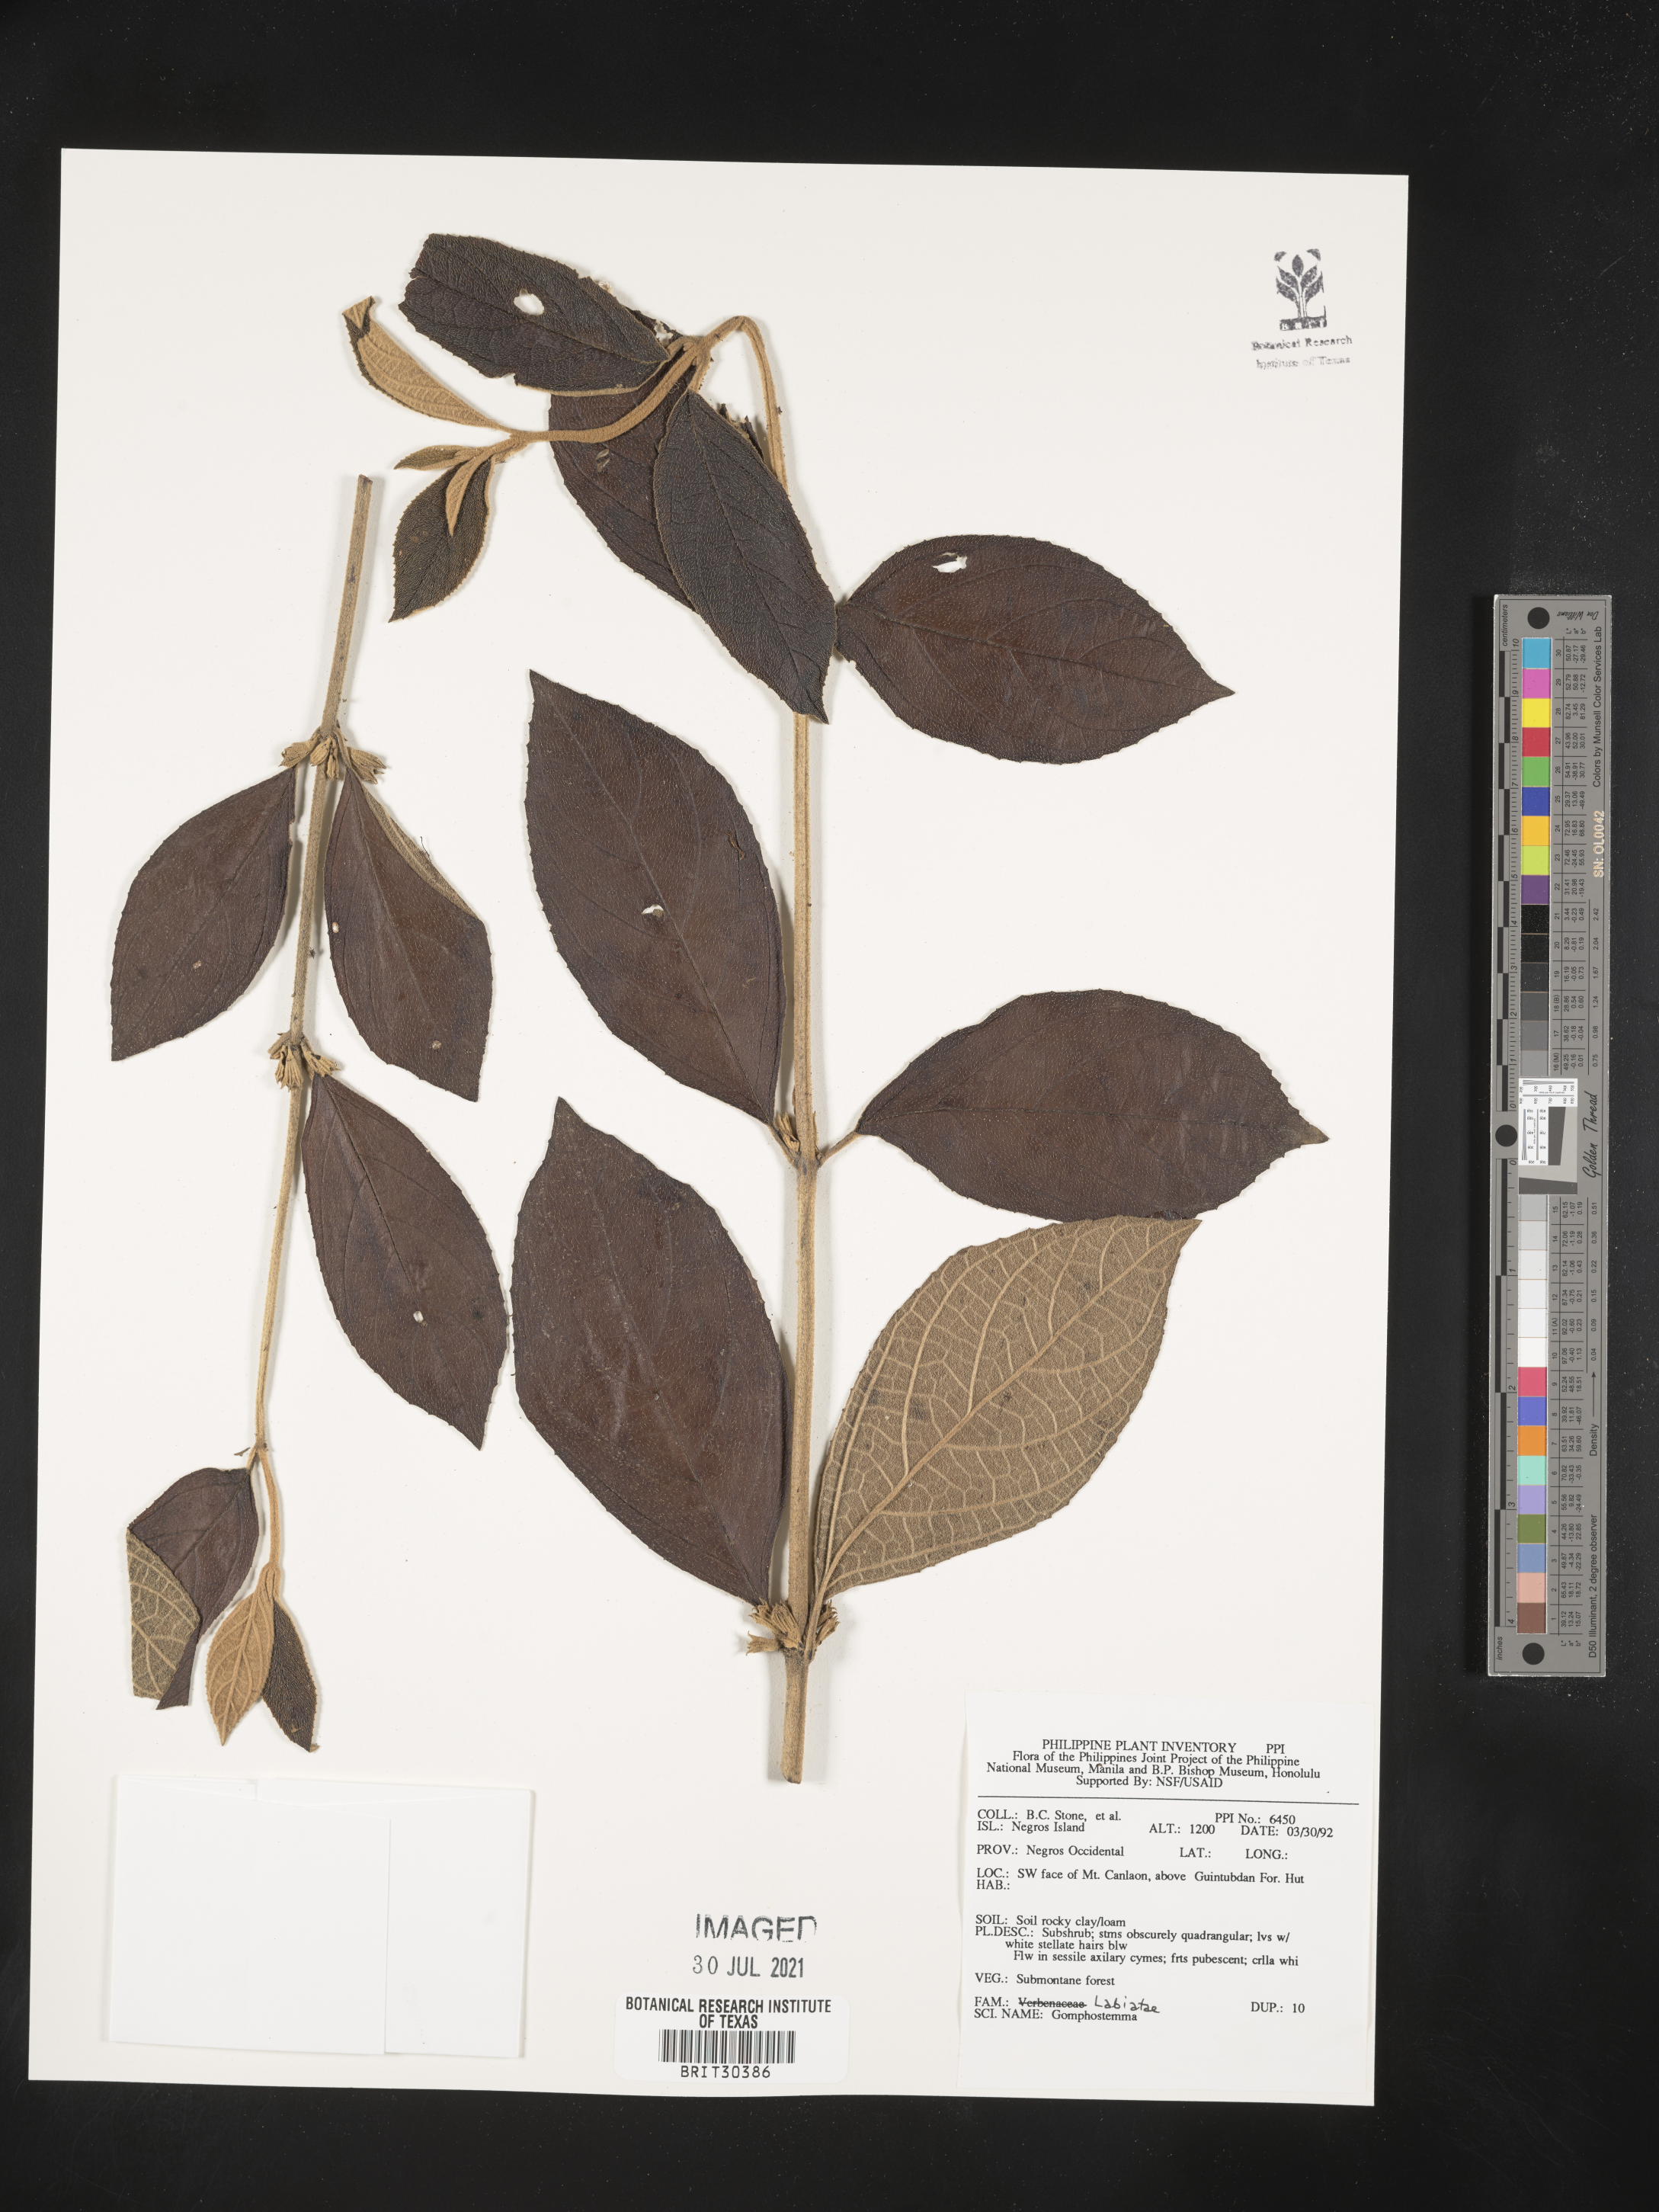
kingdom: Plantae
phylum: Tracheophyta
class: Magnoliopsida
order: Lamiales
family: Lamiaceae
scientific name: Lamiaceae
